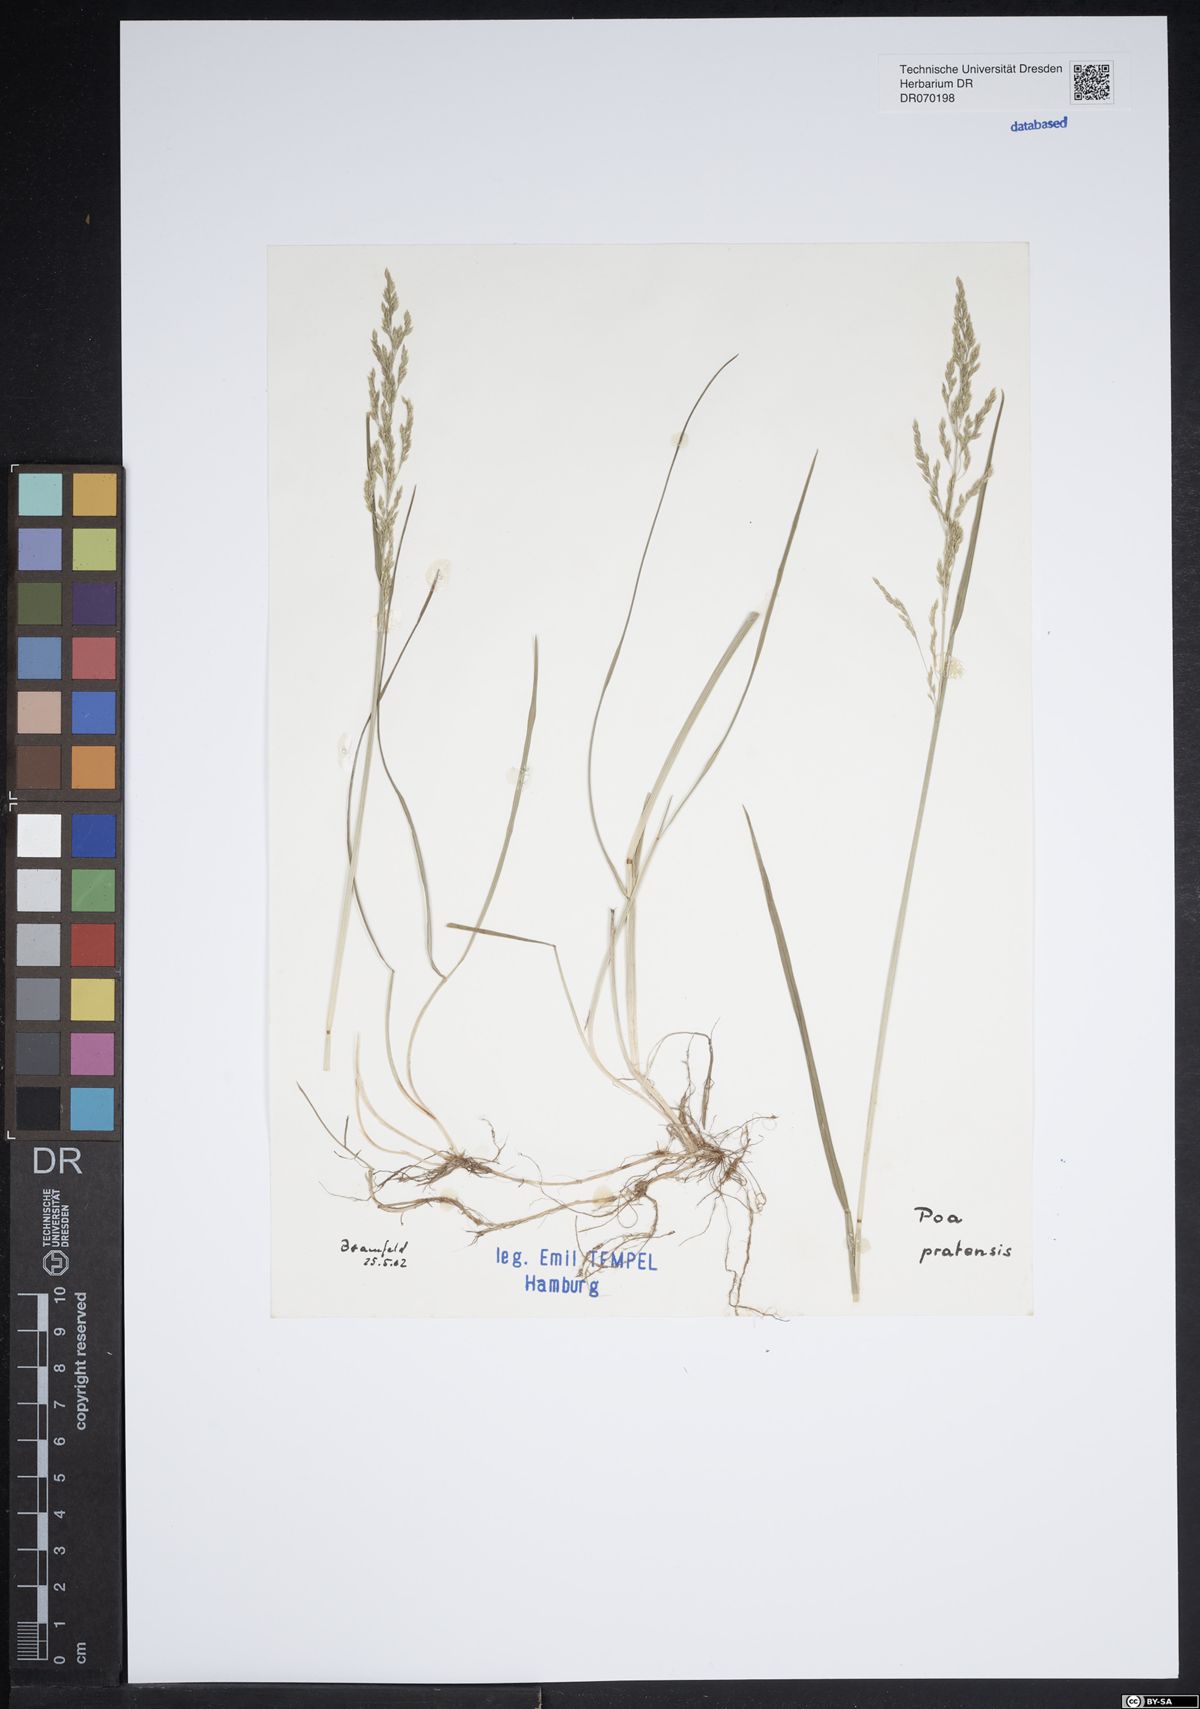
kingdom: Plantae
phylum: Tracheophyta
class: Liliopsida
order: Poales
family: Poaceae
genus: Poa
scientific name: Poa pratensis
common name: Kentucky bluegrass
